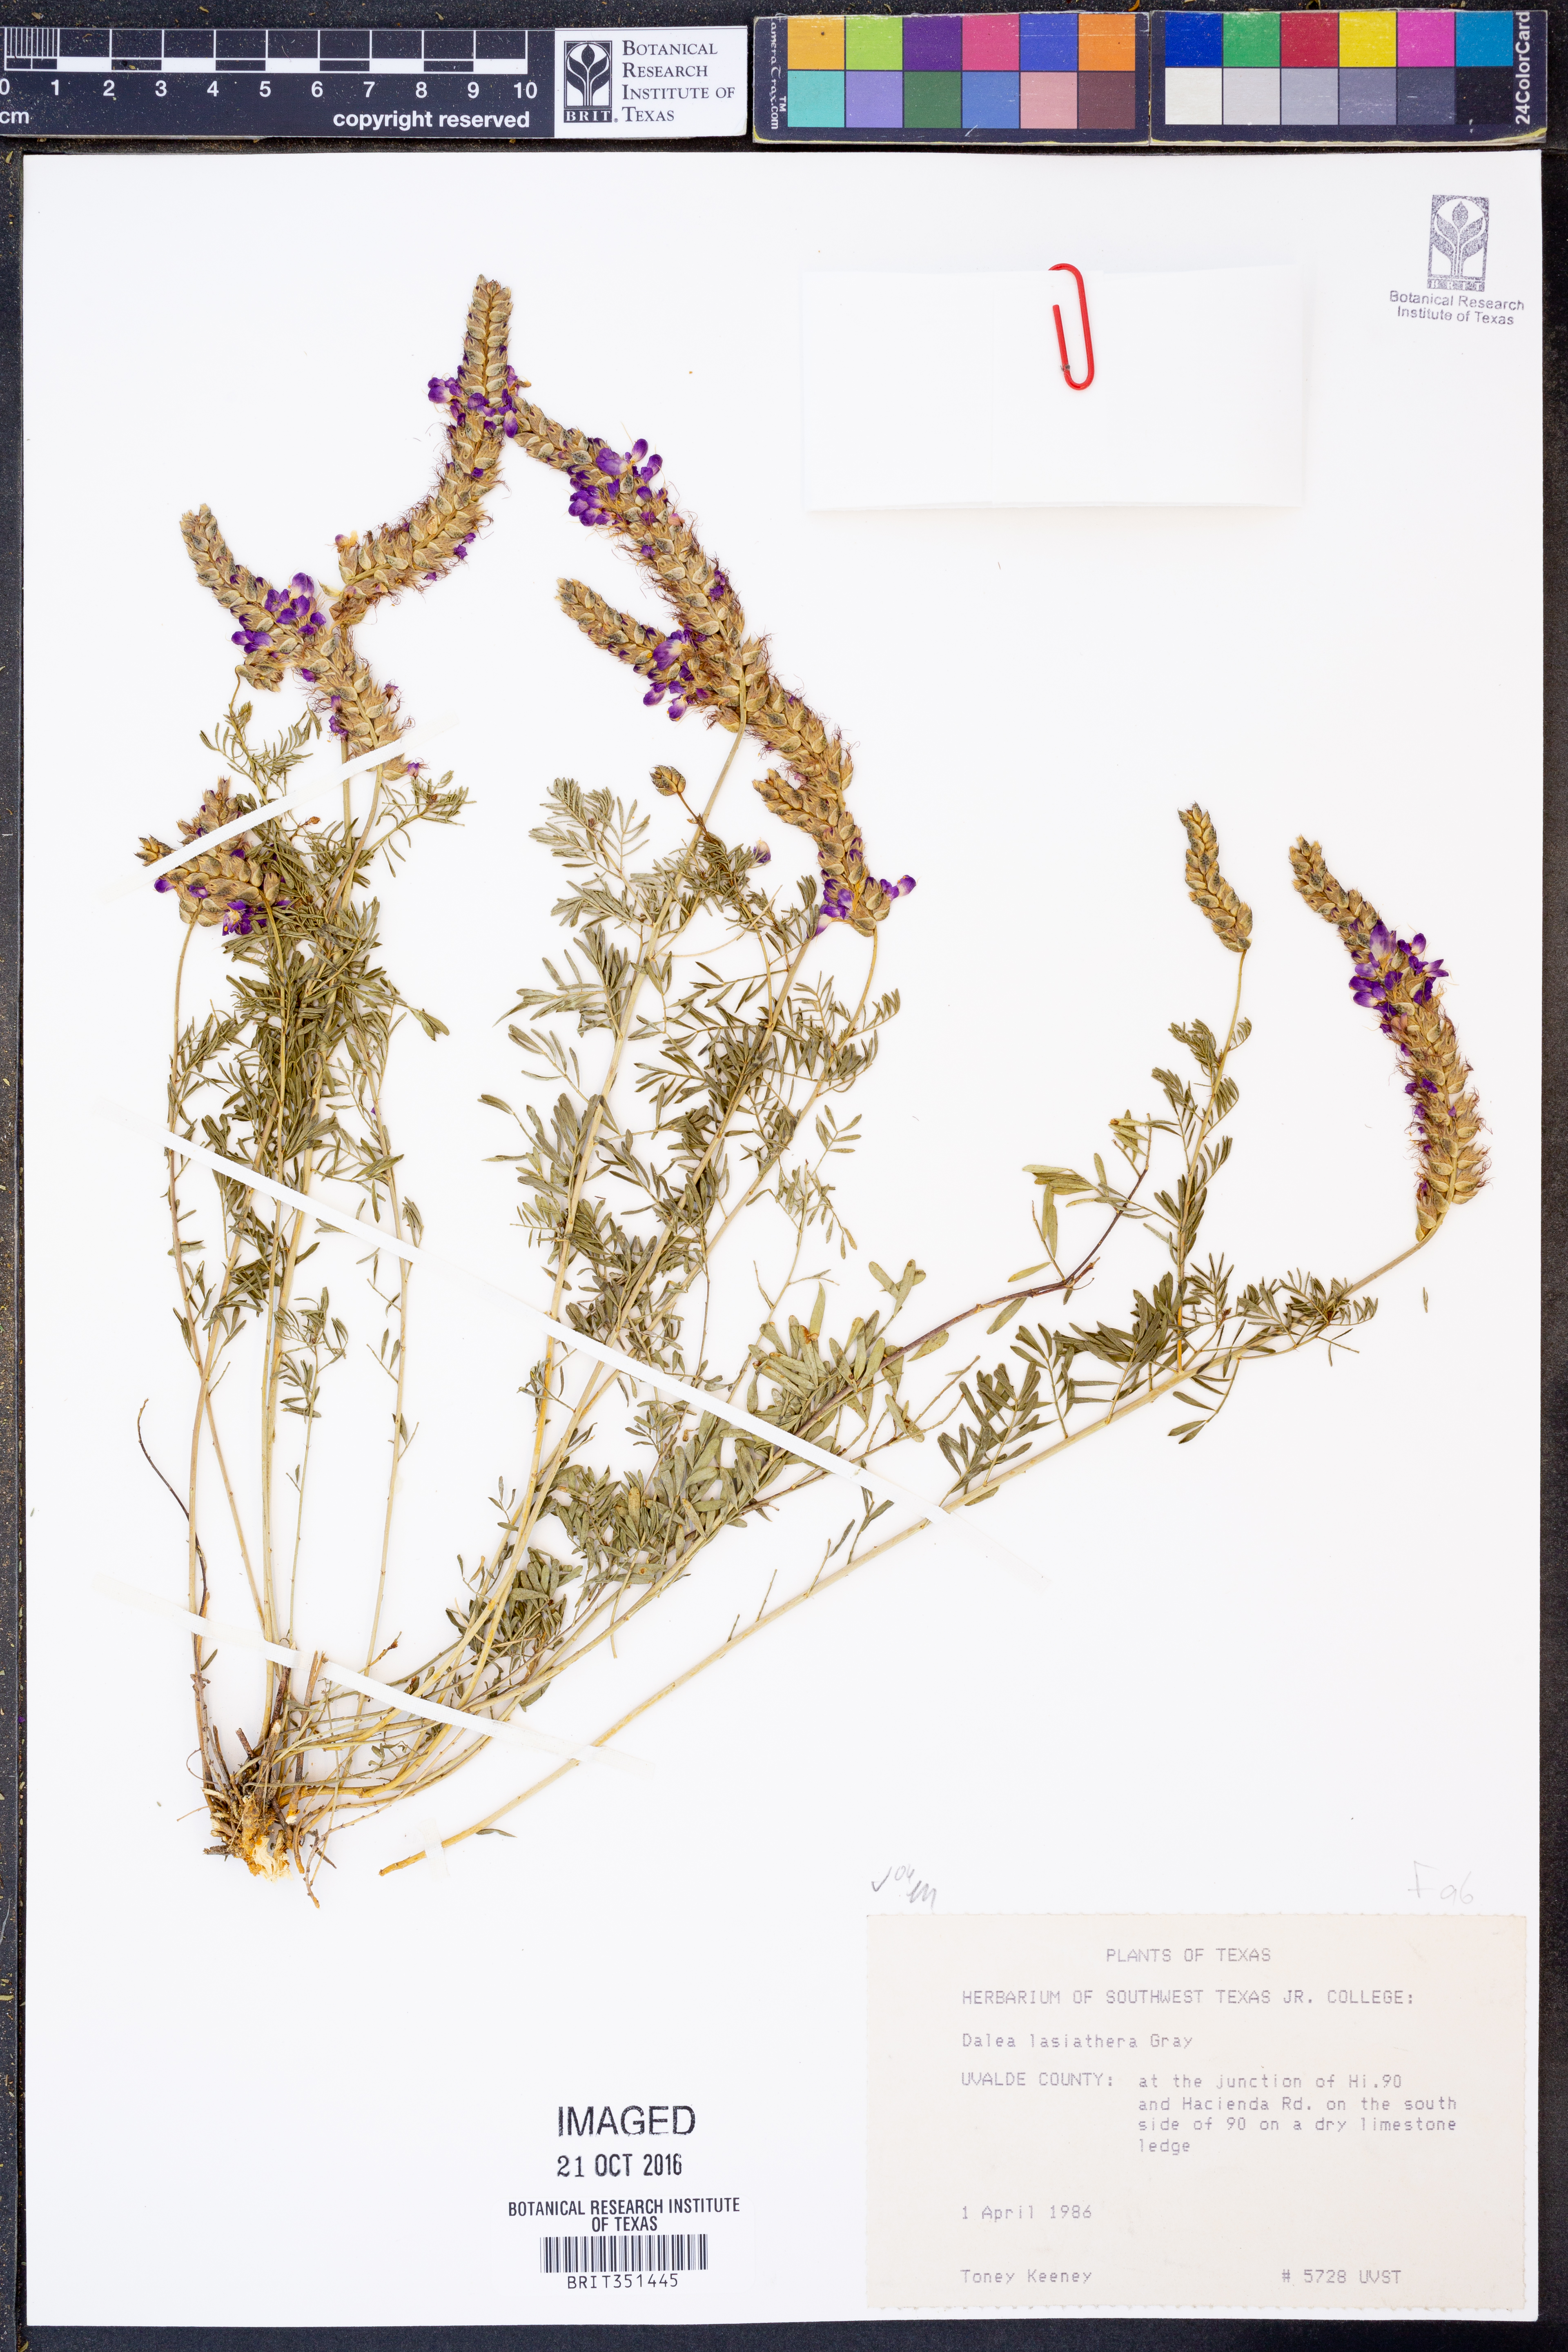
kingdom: Plantae
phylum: Tracheophyta
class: Magnoliopsida
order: Fabales
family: Fabaceae
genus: Dalea
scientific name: Dalea lasiathera
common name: Purple prairie-clover
